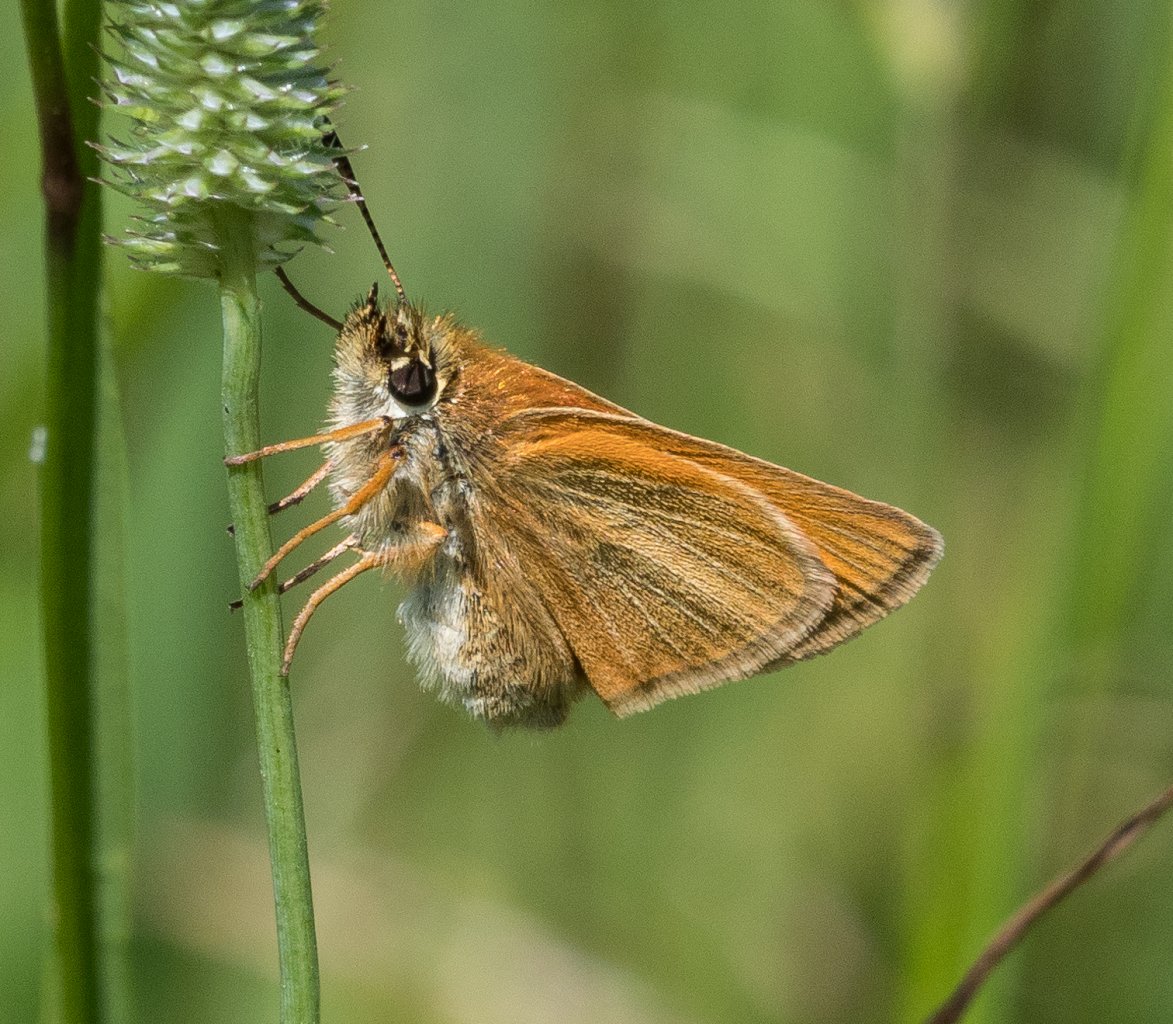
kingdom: Animalia
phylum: Arthropoda
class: Insecta
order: Lepidoptera
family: Hesperiidae
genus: Thymelicus
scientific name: Thymelicus lineola
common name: European Skipper
